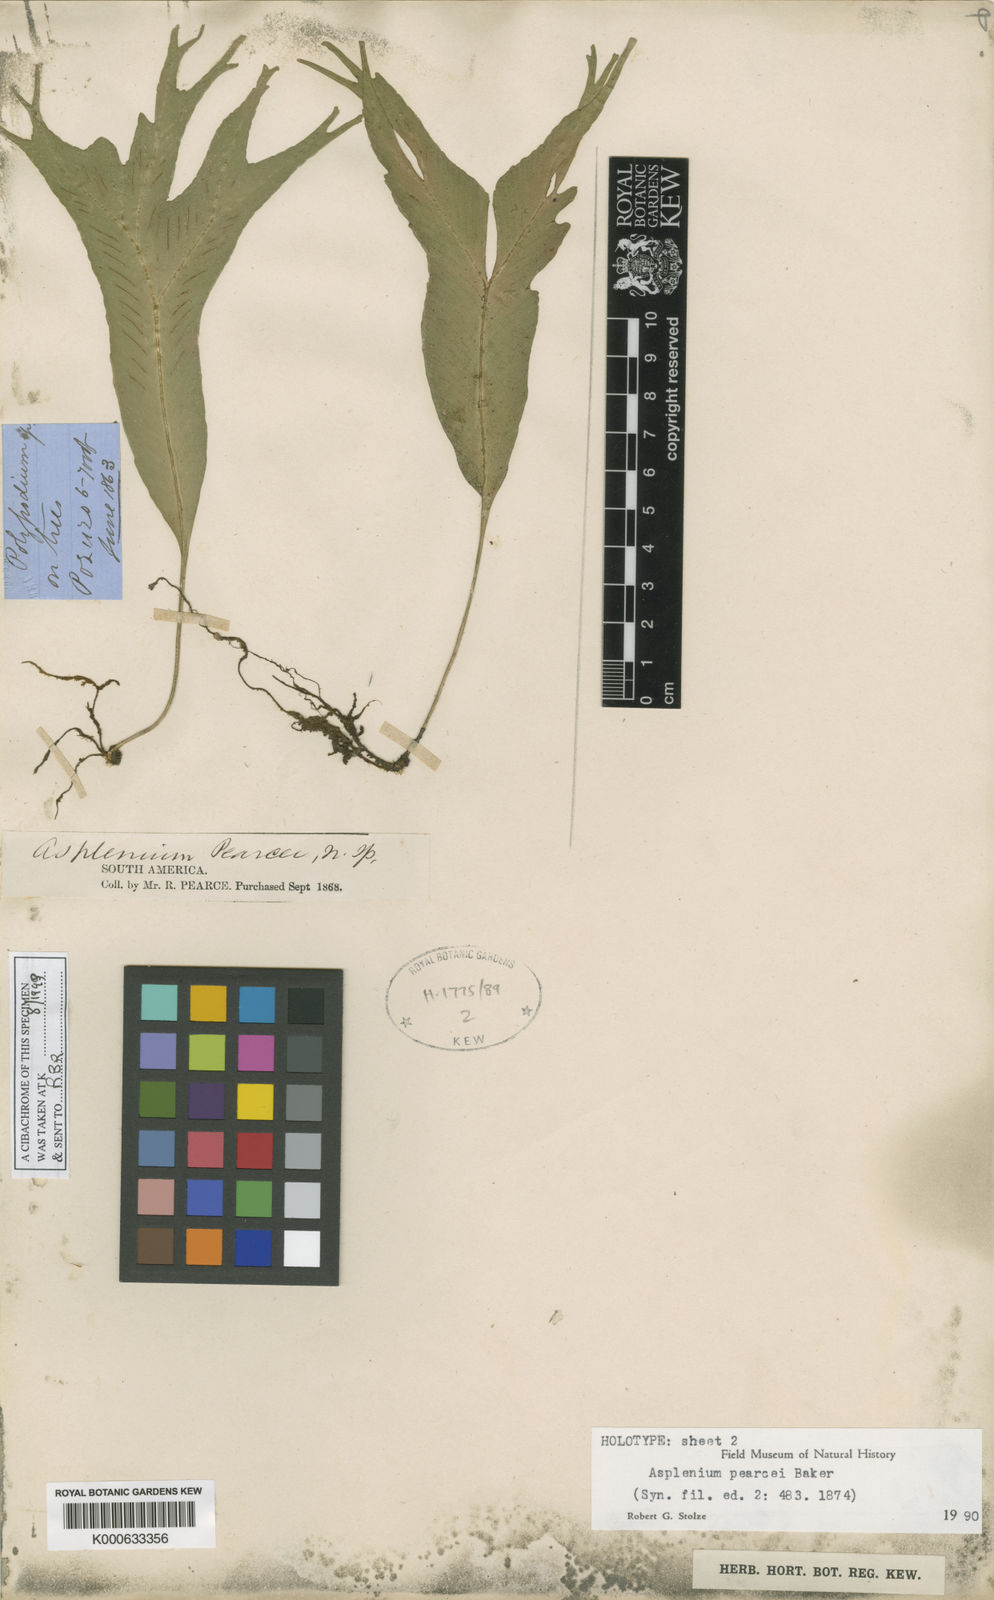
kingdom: Plantae
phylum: Tracheophyta
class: Polypodiopsida
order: Polypodiales
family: Aspleniaceae
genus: Asplenium
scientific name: Asplenium pearcei
